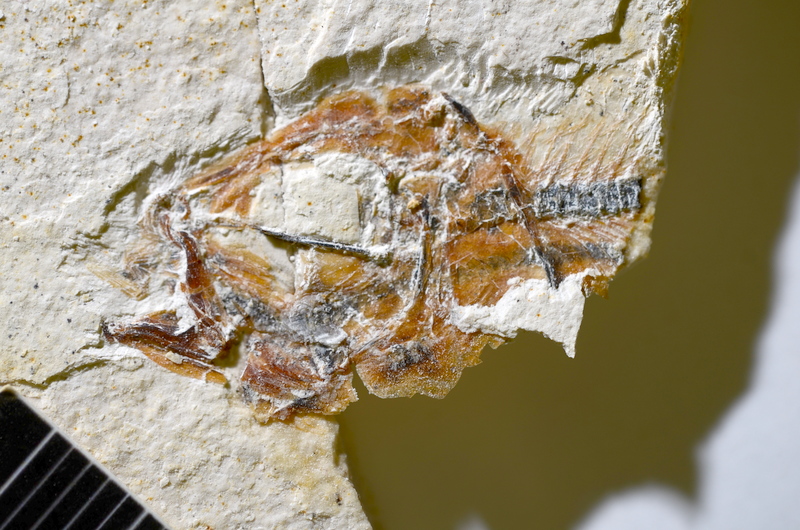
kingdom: Animalia
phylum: Chordata
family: Ascalaboidae
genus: Ebertichthys
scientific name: Ebertichthys ettlingensis
